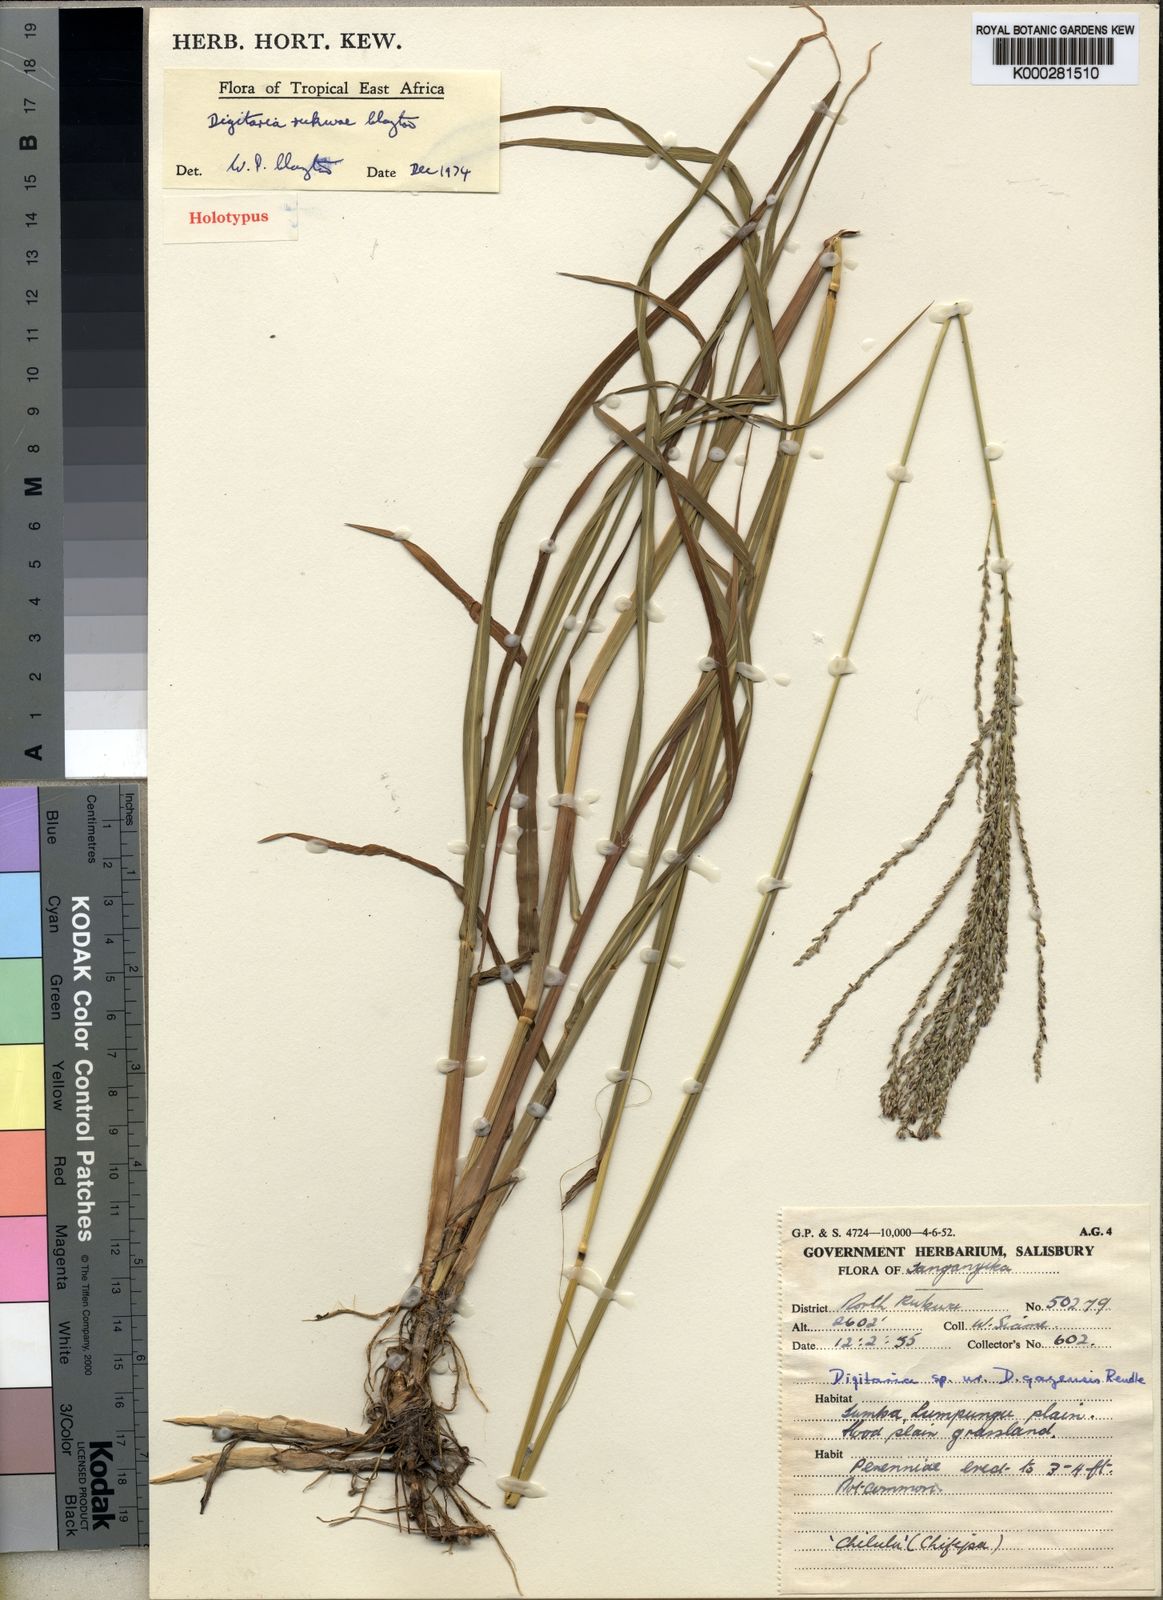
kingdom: Plantae
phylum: Tracheophyta
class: Liliopsida
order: Poales
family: Poaceae
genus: Digitaria
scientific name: Digitaria rukwae
